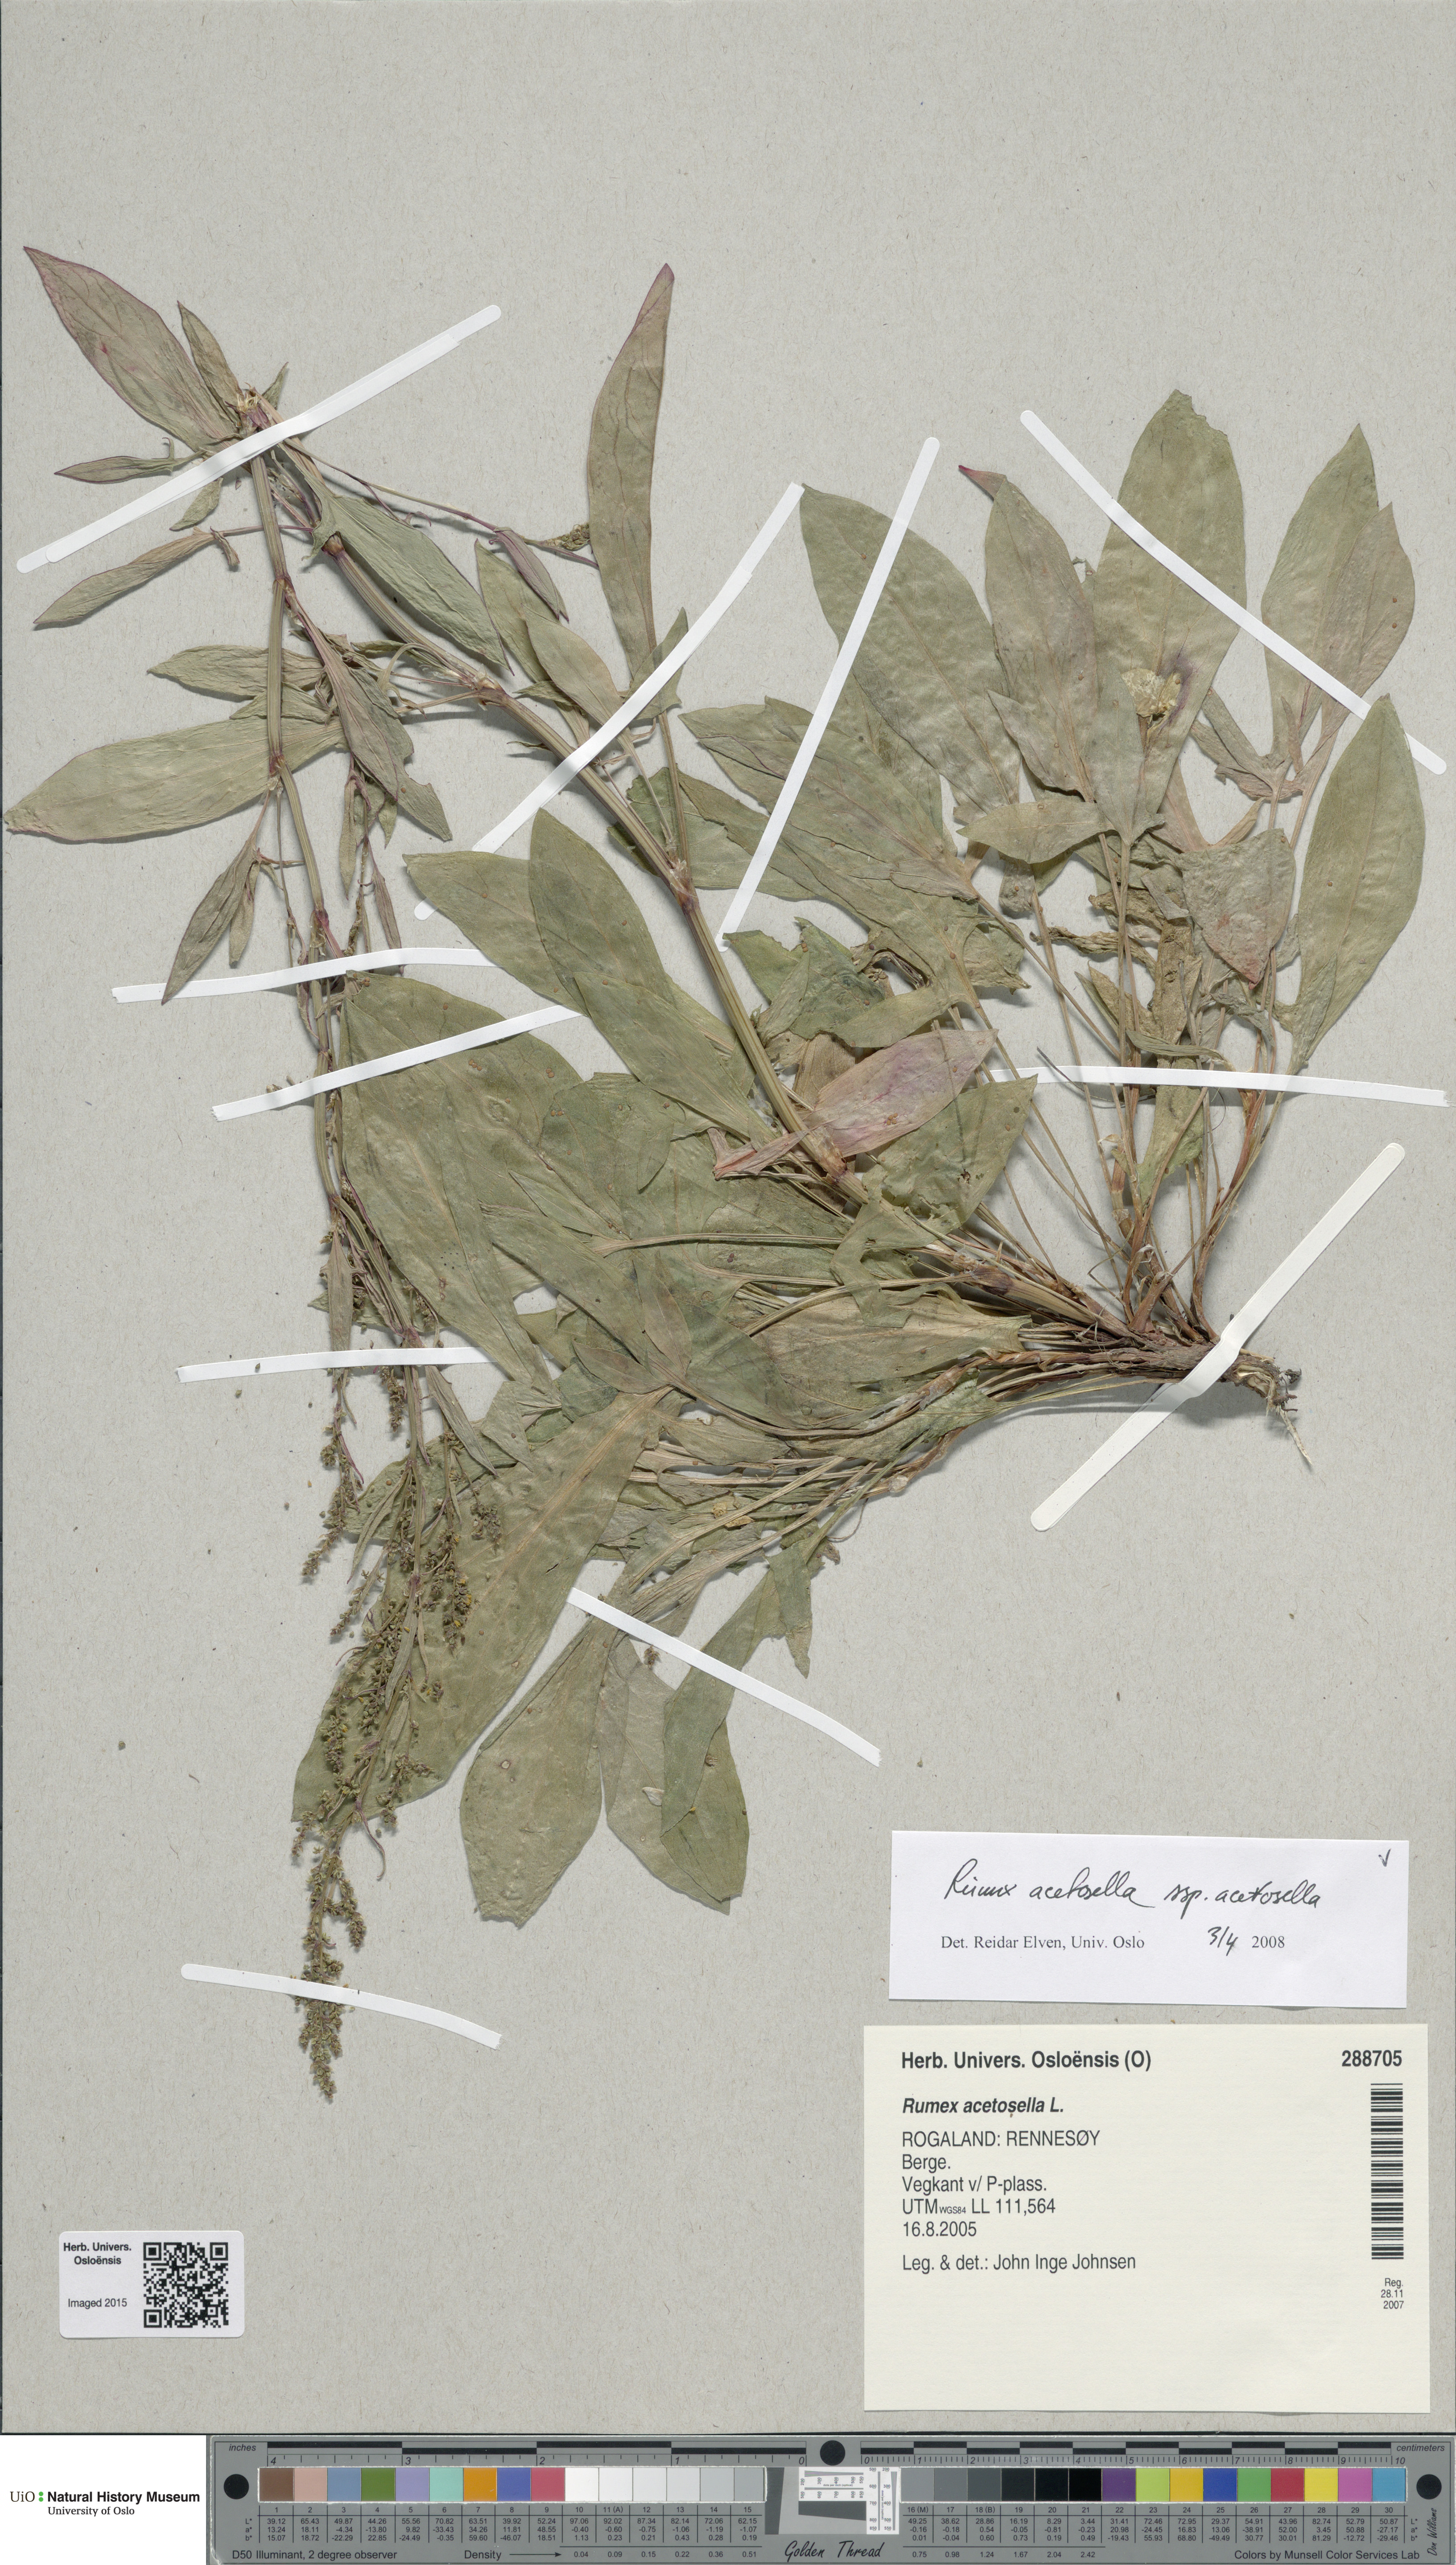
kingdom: Plantae
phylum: Tracheophyta
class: Magnoliopsida
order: Caryophyllales
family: Polygonaceae
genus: Rumex
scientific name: Rumex acetosella
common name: Common sheep sorrel
